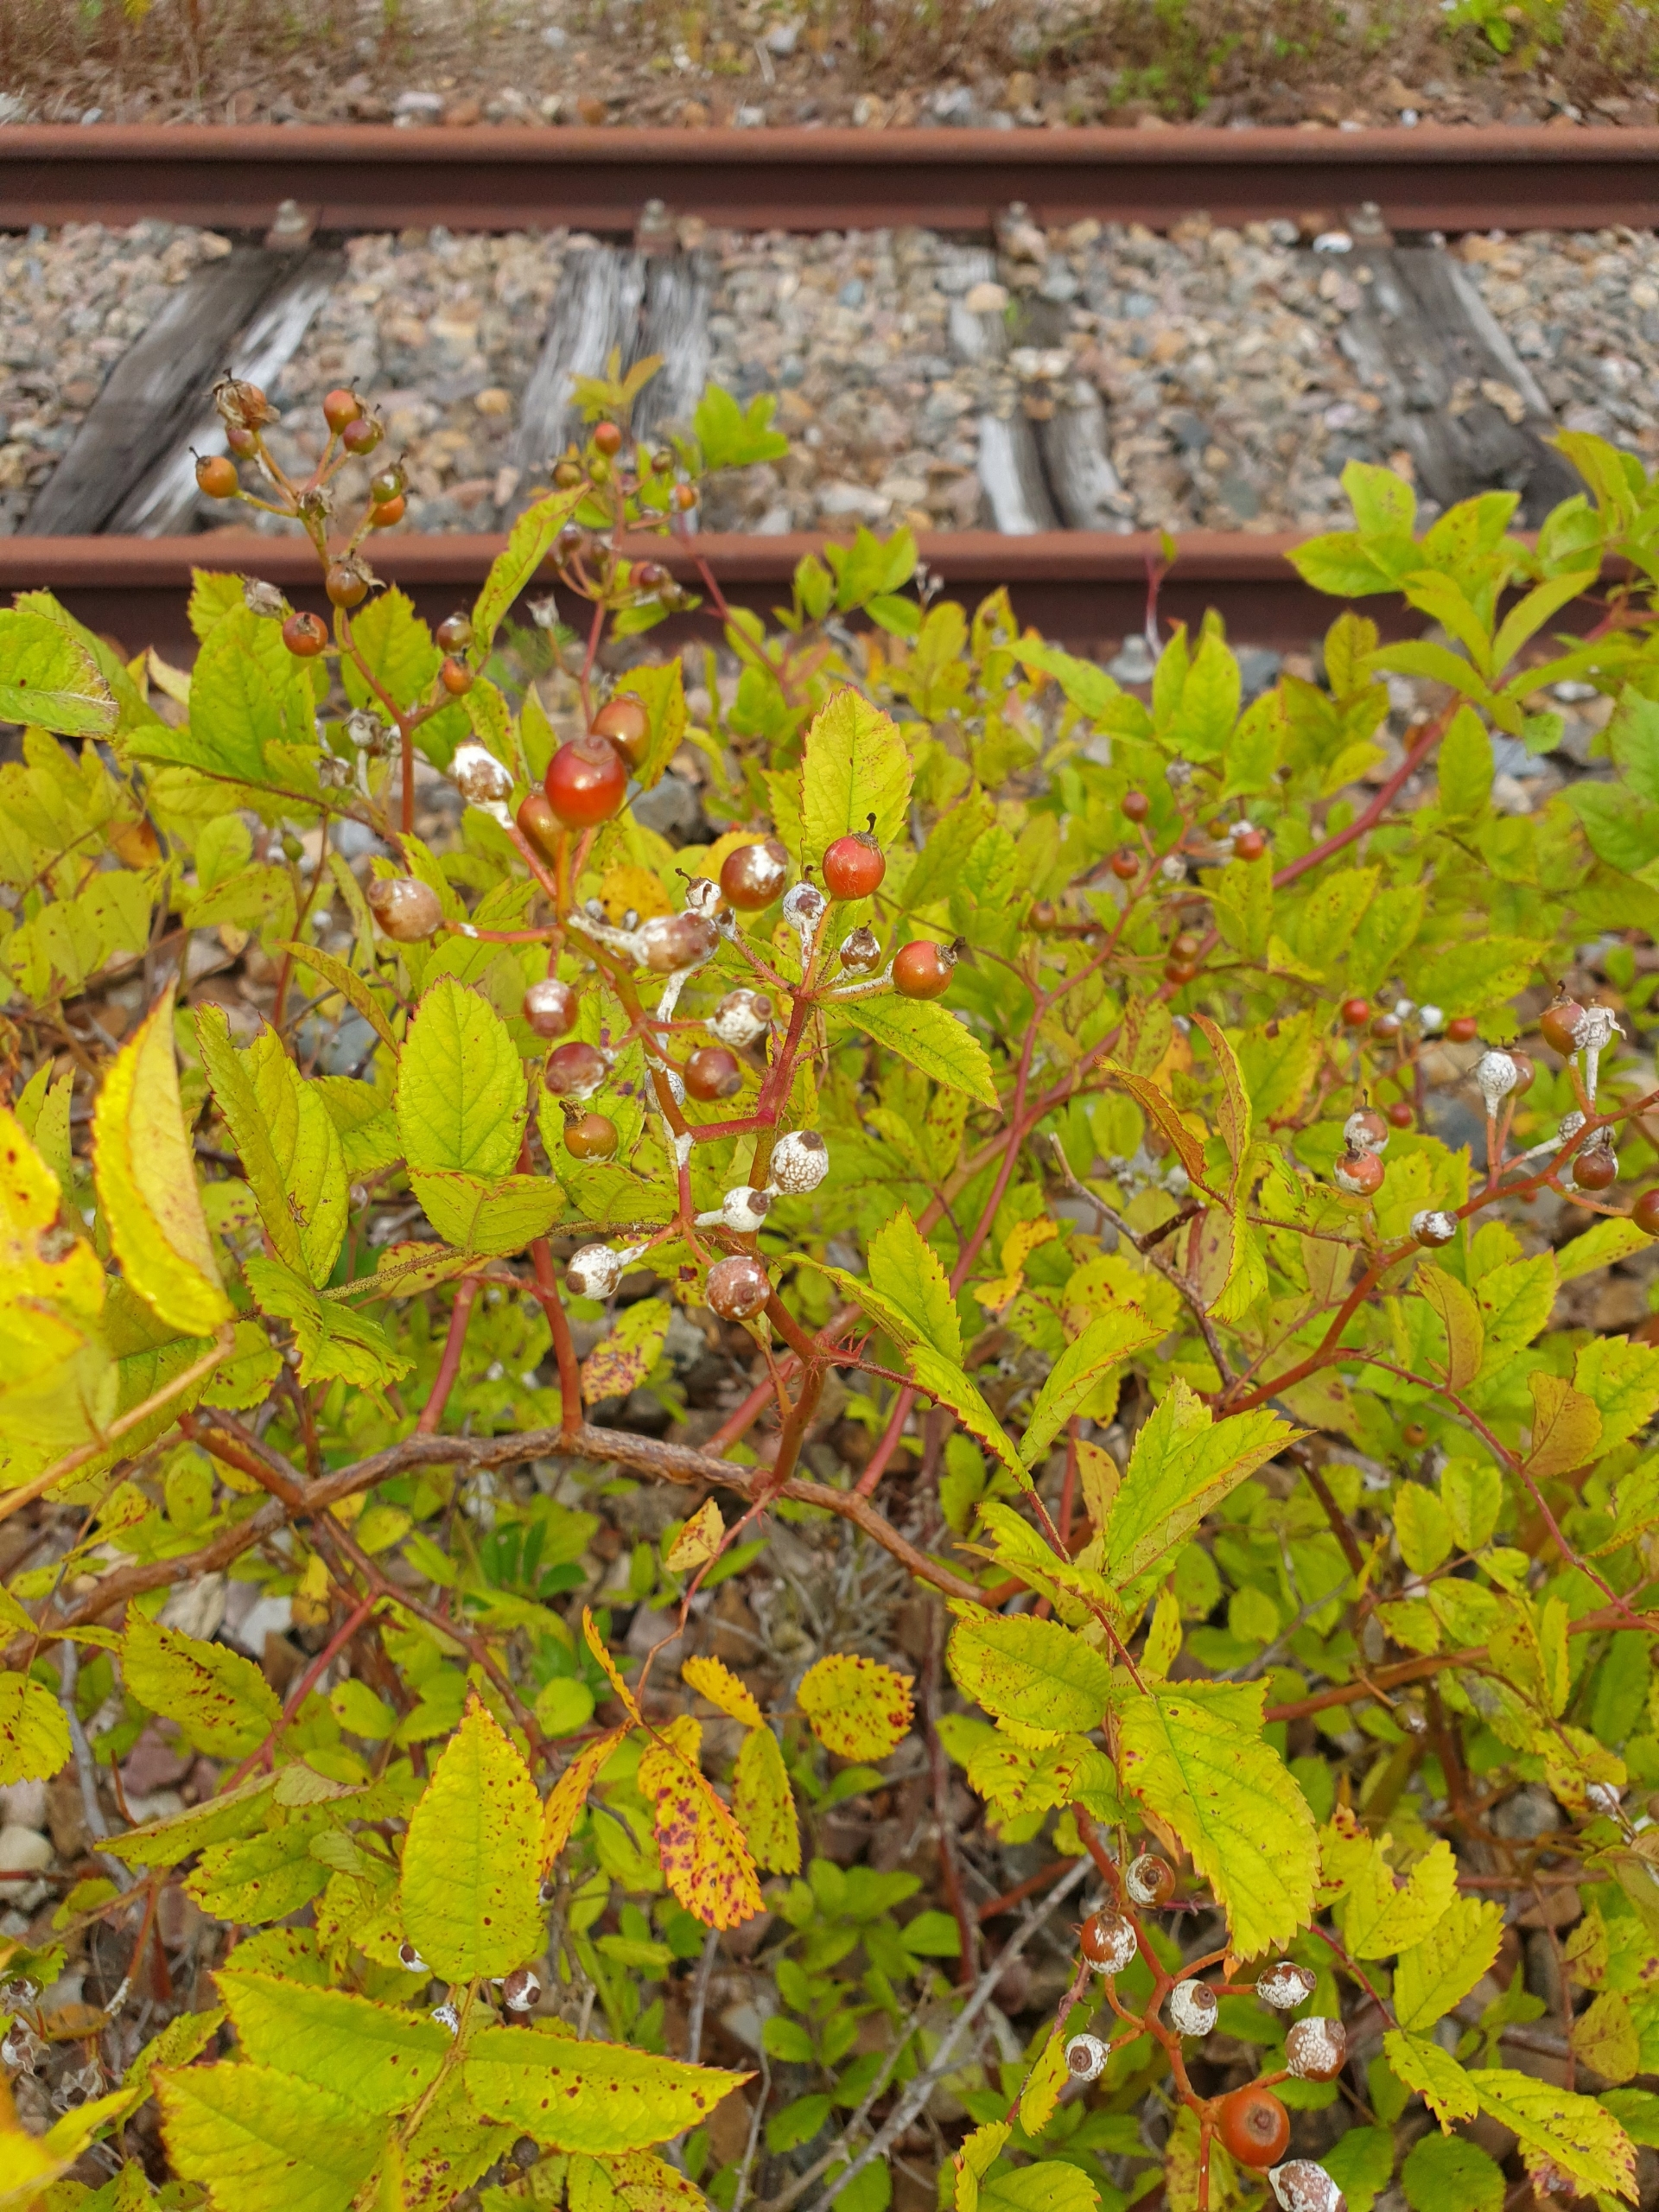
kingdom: Plantae
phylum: Tracheophyta
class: Magnoliopsida
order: Rosales
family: Rosaceae
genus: Rosa
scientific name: Rosa multiflora
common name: Mangeblomstret rose
